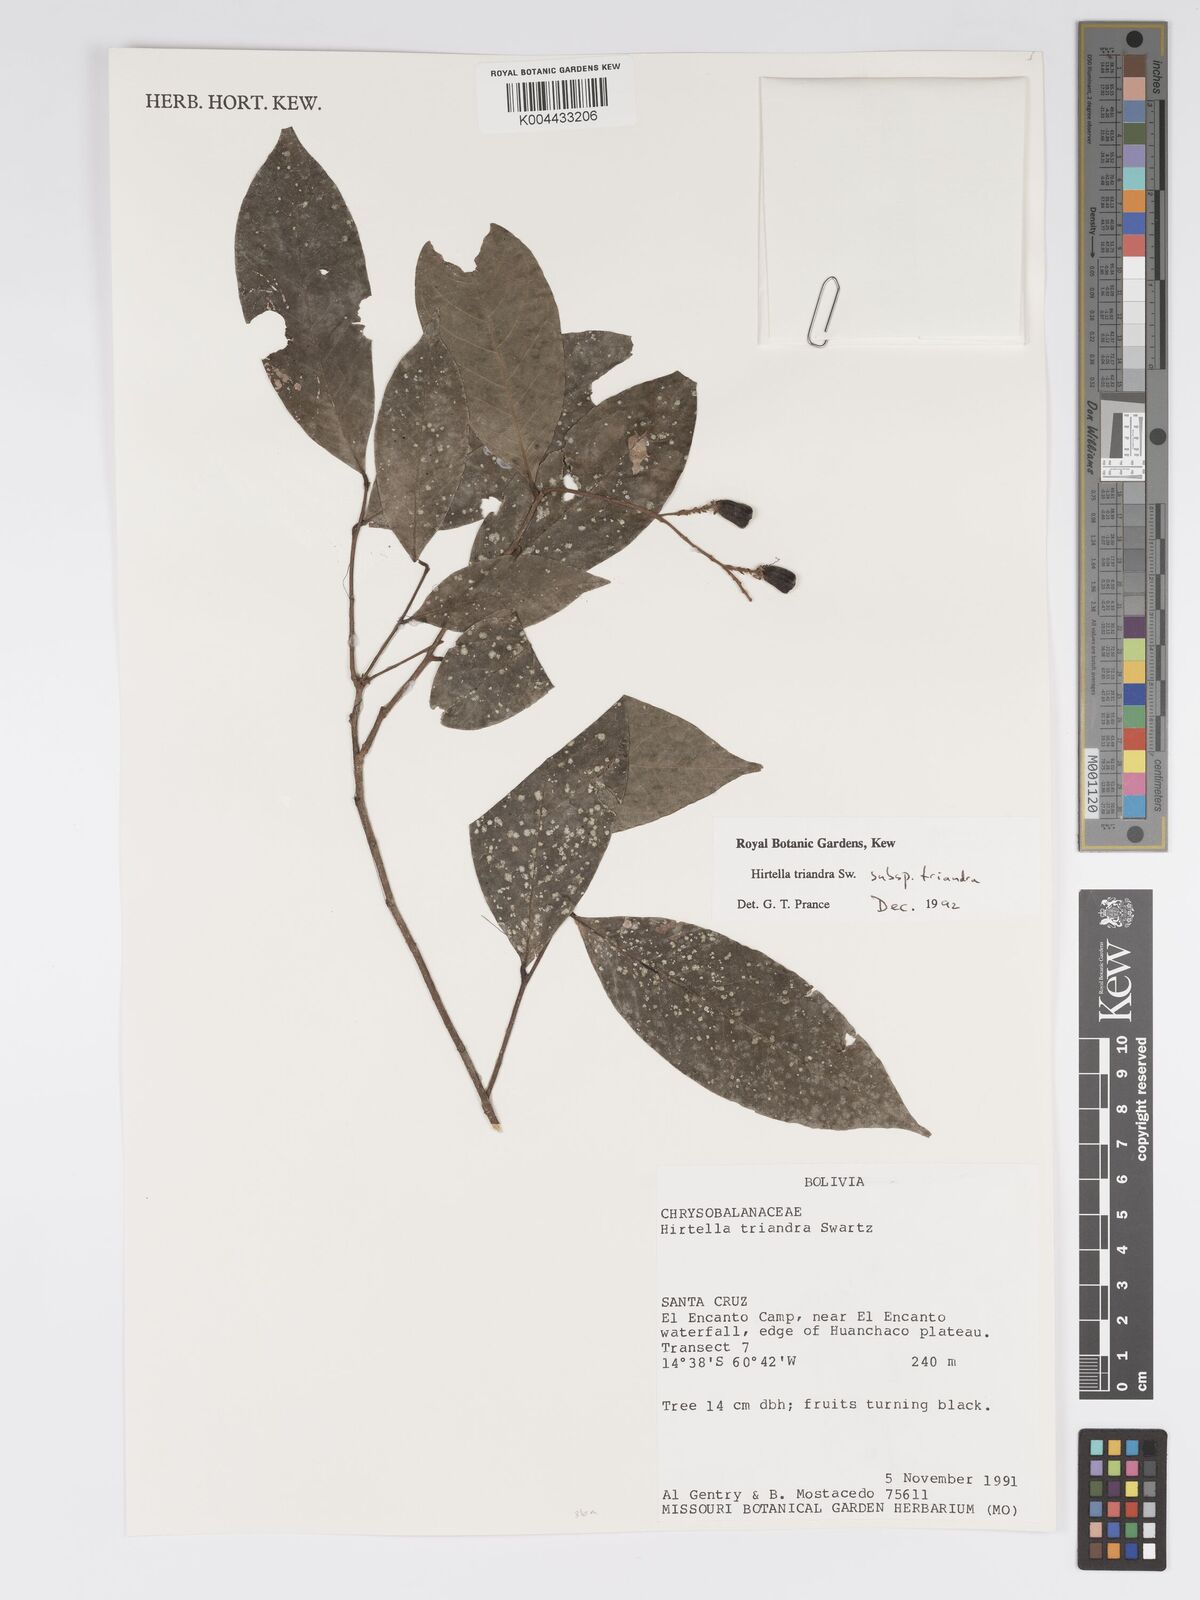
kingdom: Plantae
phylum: Tracheophyta
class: Magnoliopsida
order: Malpighiales
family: Chrysobalanaceae
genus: Hirtella
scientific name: Hirtella triandra
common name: Hairy plum
